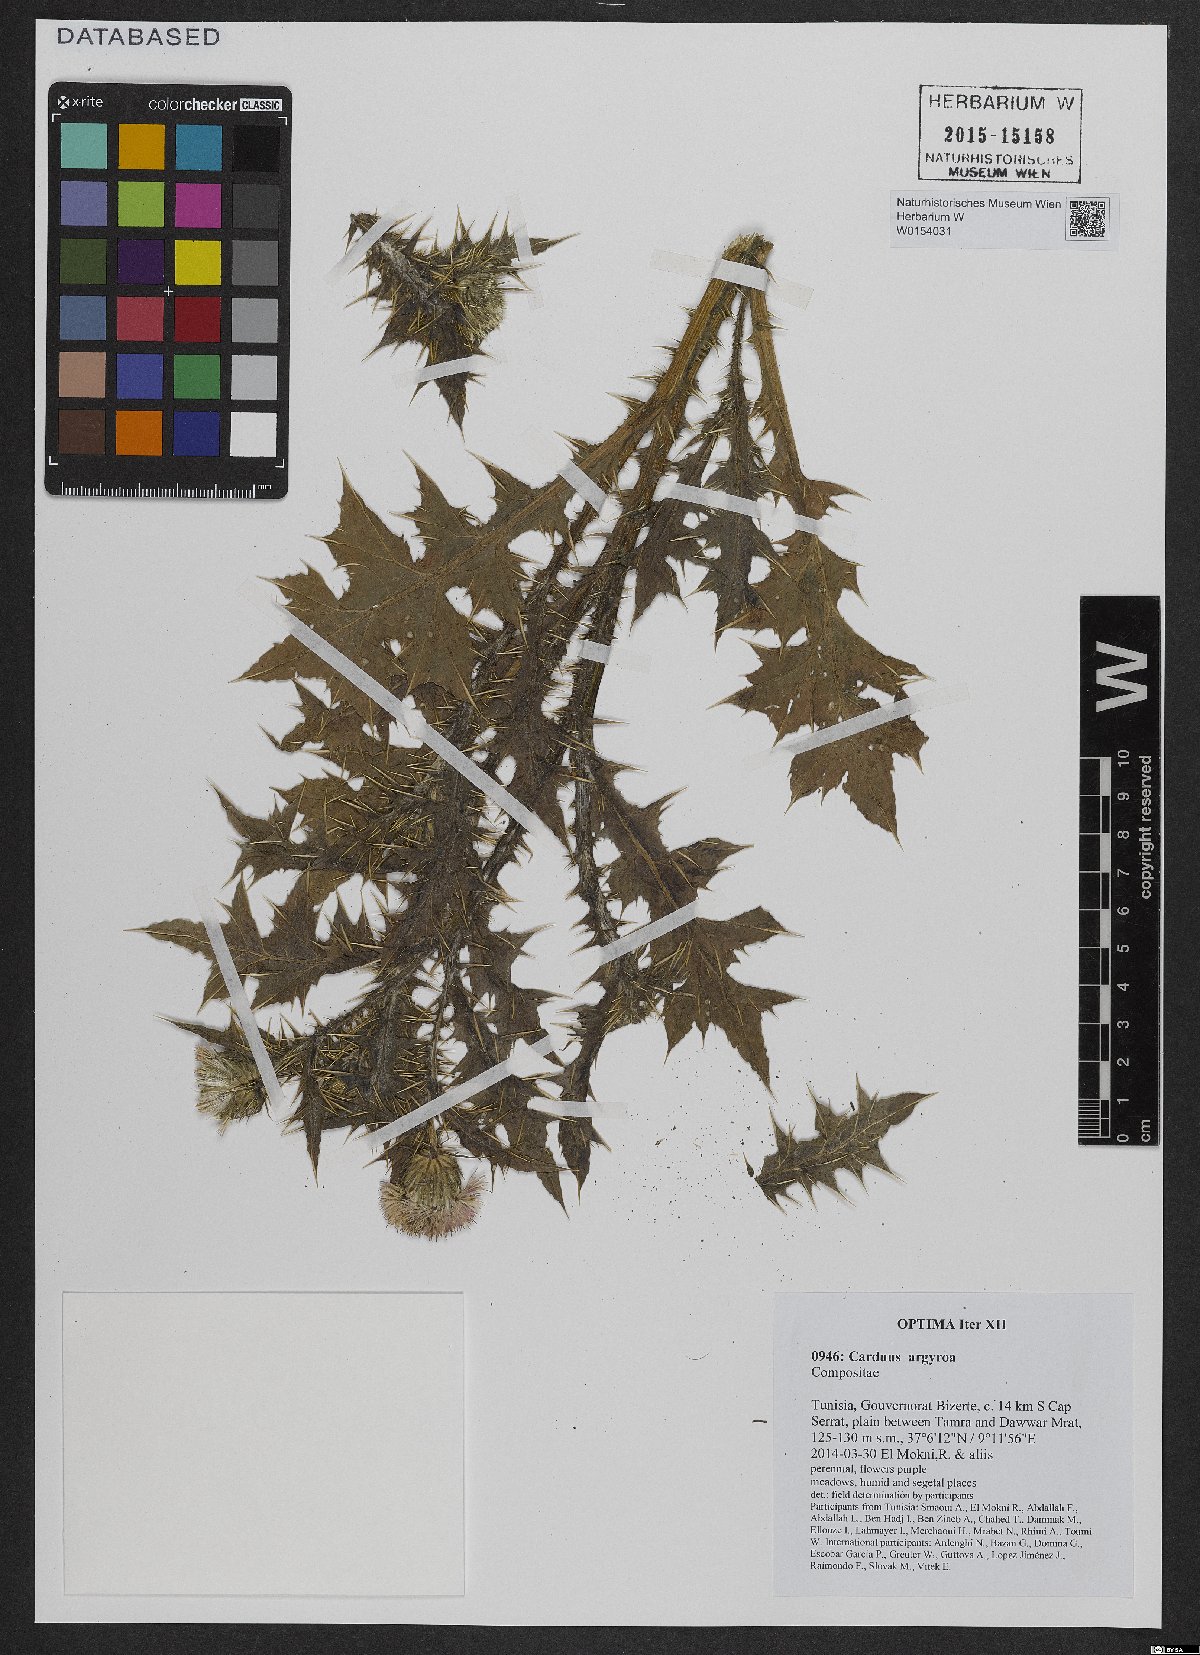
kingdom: Plantae
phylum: Tracheophyta
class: Magnoliopsida
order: Asterales
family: Asteraceae
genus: Carduus
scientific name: Carduus argyroa
